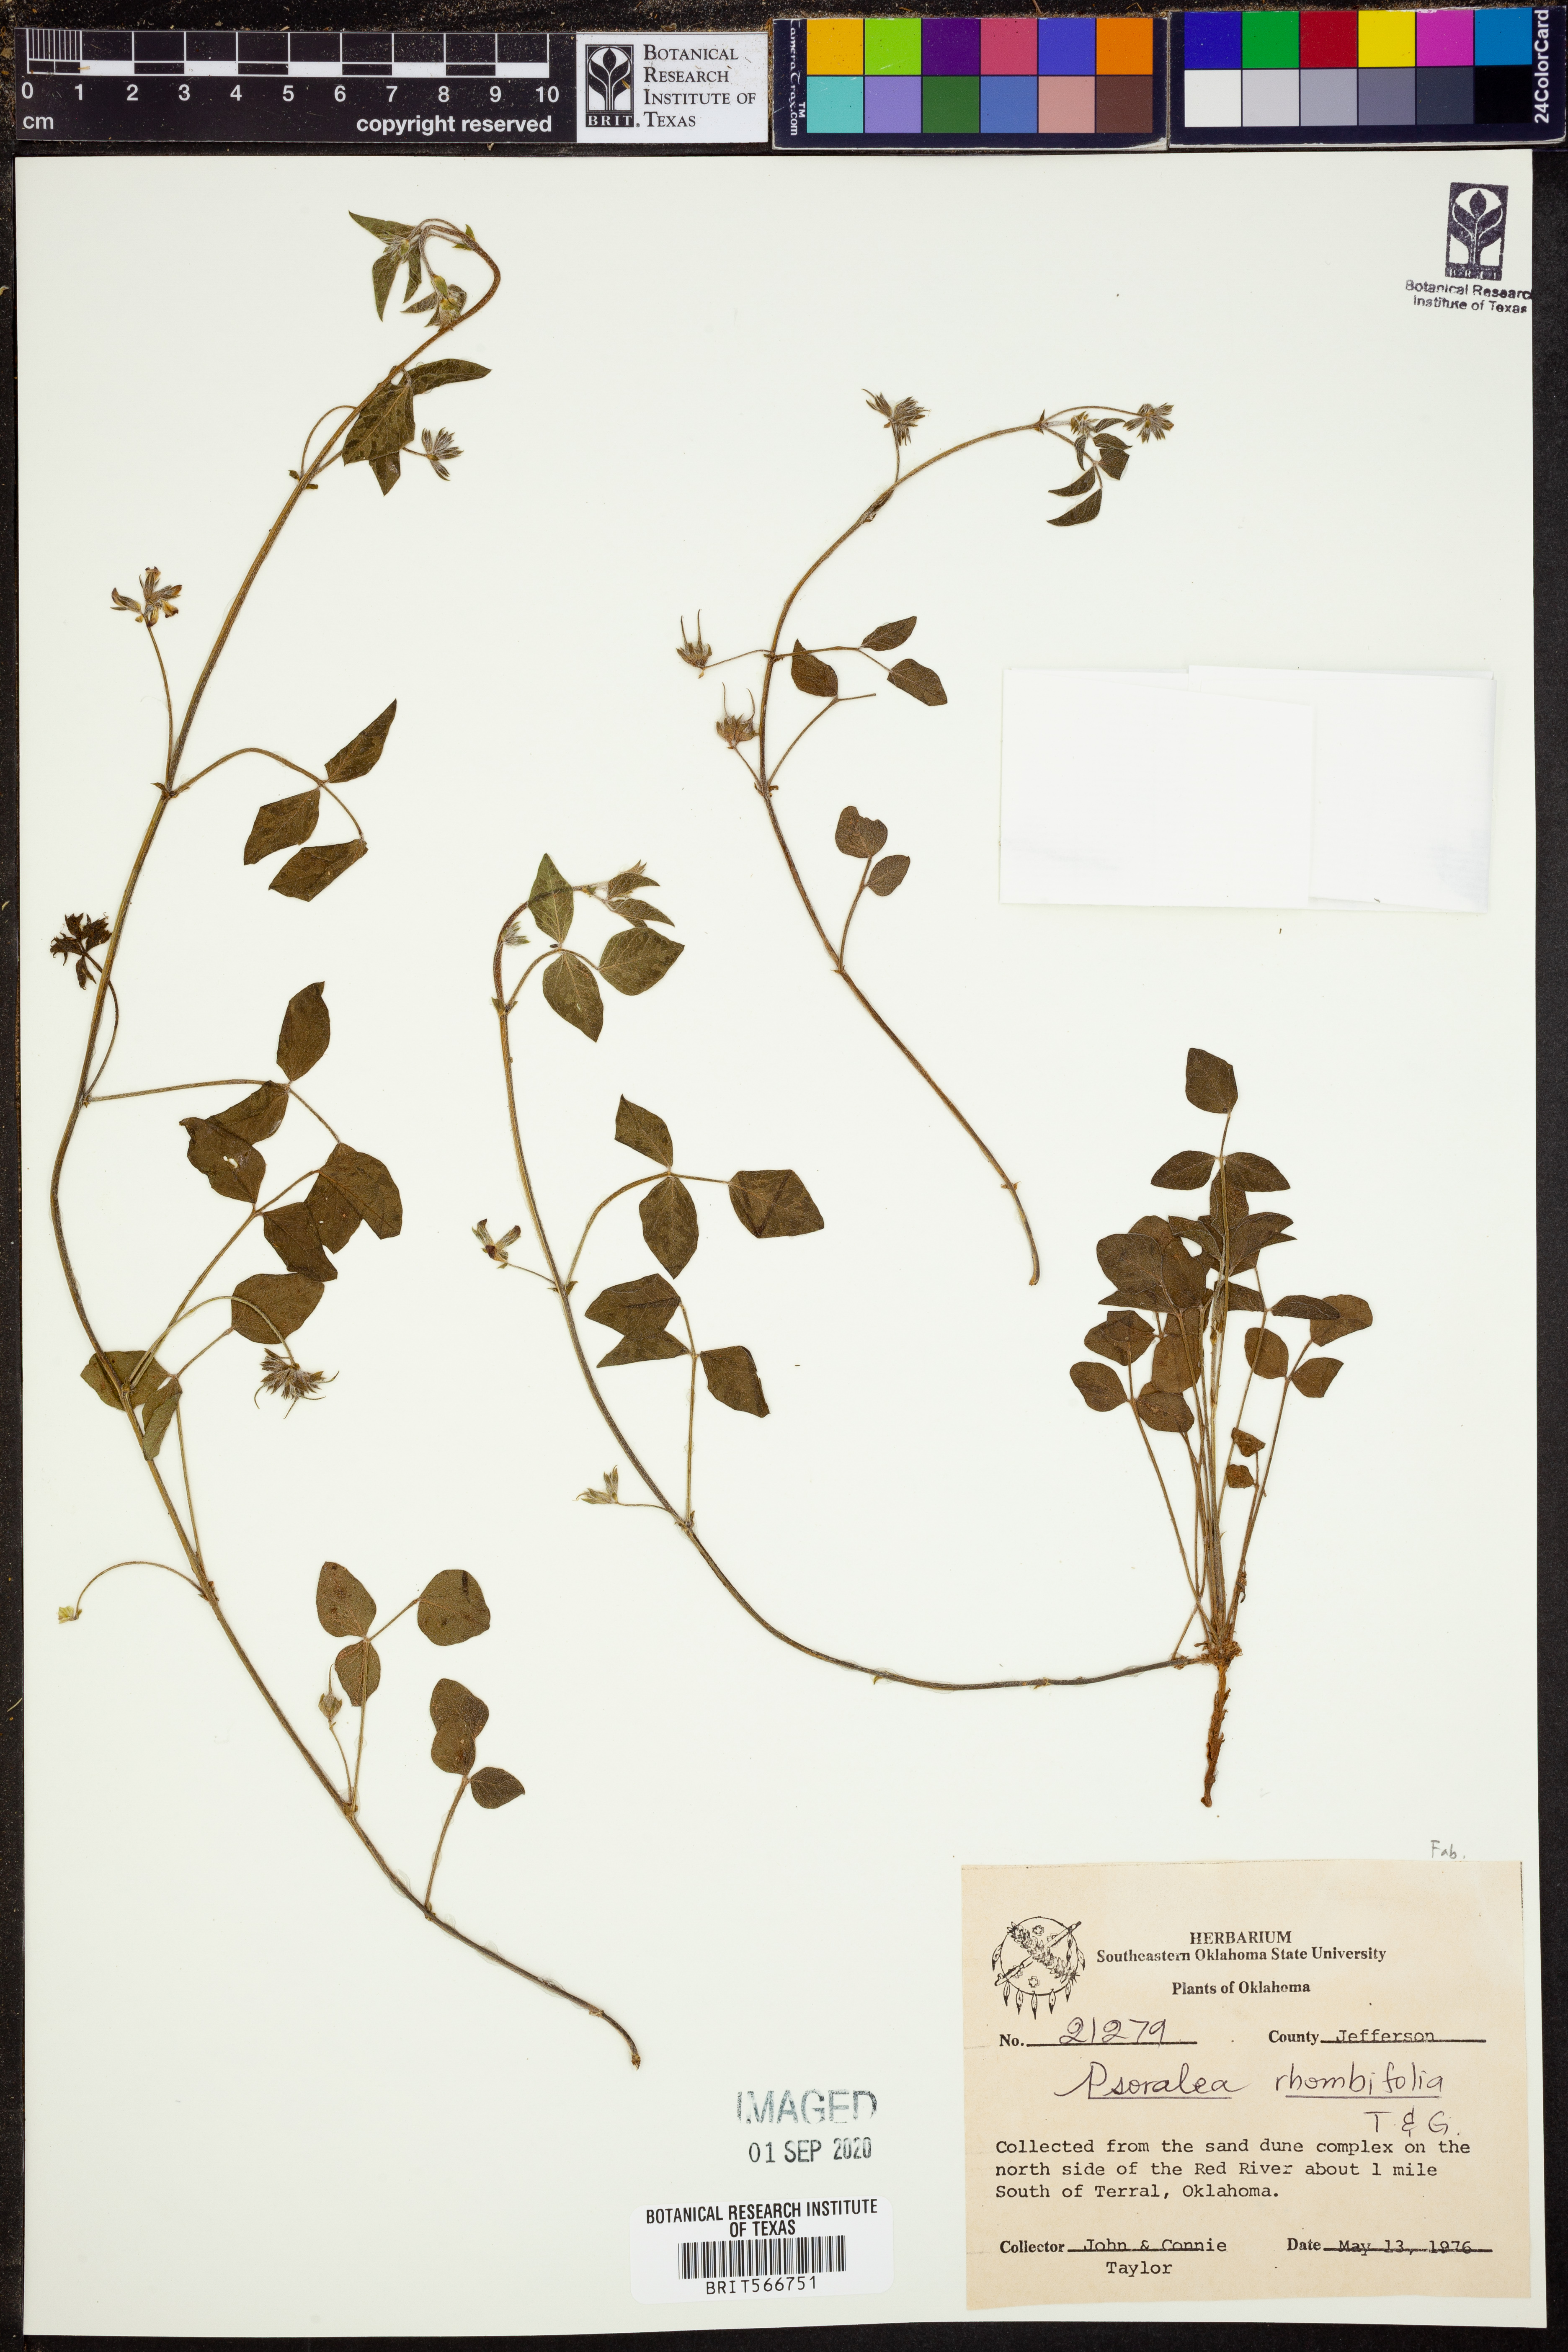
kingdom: Plantae
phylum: Tracheophyta
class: Magnoliopsida
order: Fabales
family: Fabaceae
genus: Pediomelum
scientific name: Pediomelum rhombifolium
